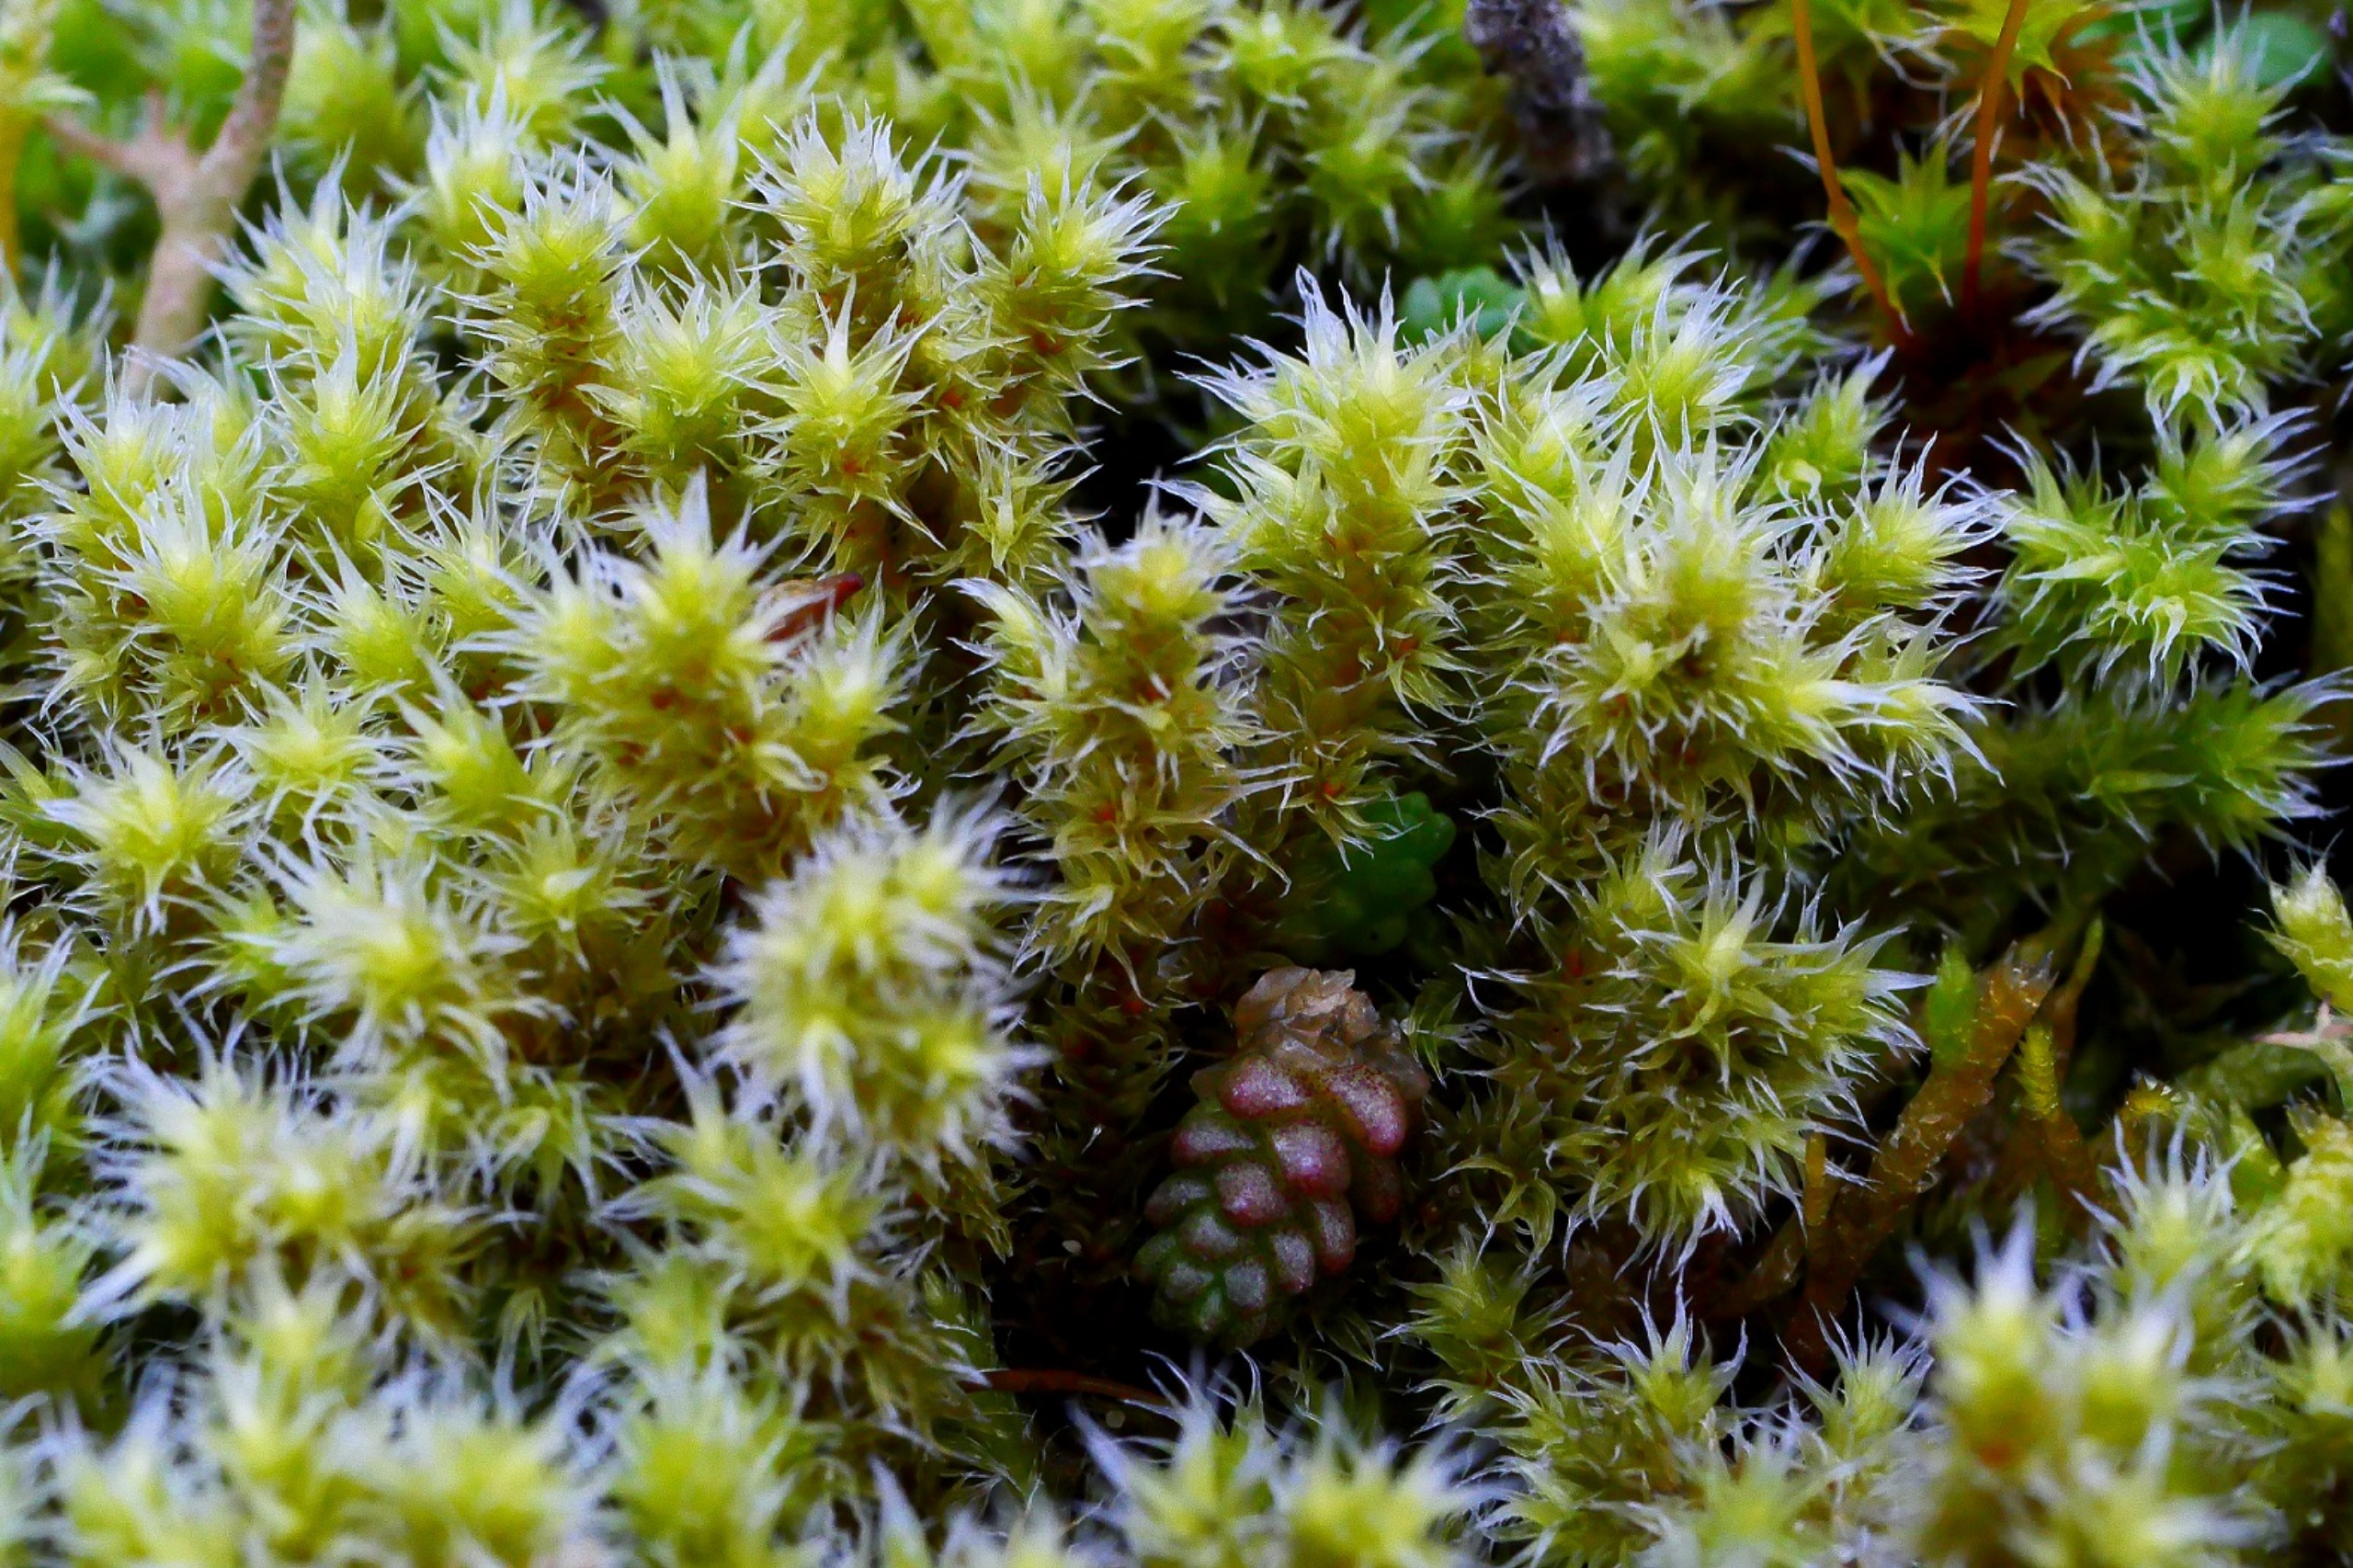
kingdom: Plantae
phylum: Bryophyta
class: Bryopsida
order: Grimmiales
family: Grimmiaceae
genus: Niphotrichum
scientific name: Niphotrichum canescens
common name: Sand-børstemos
